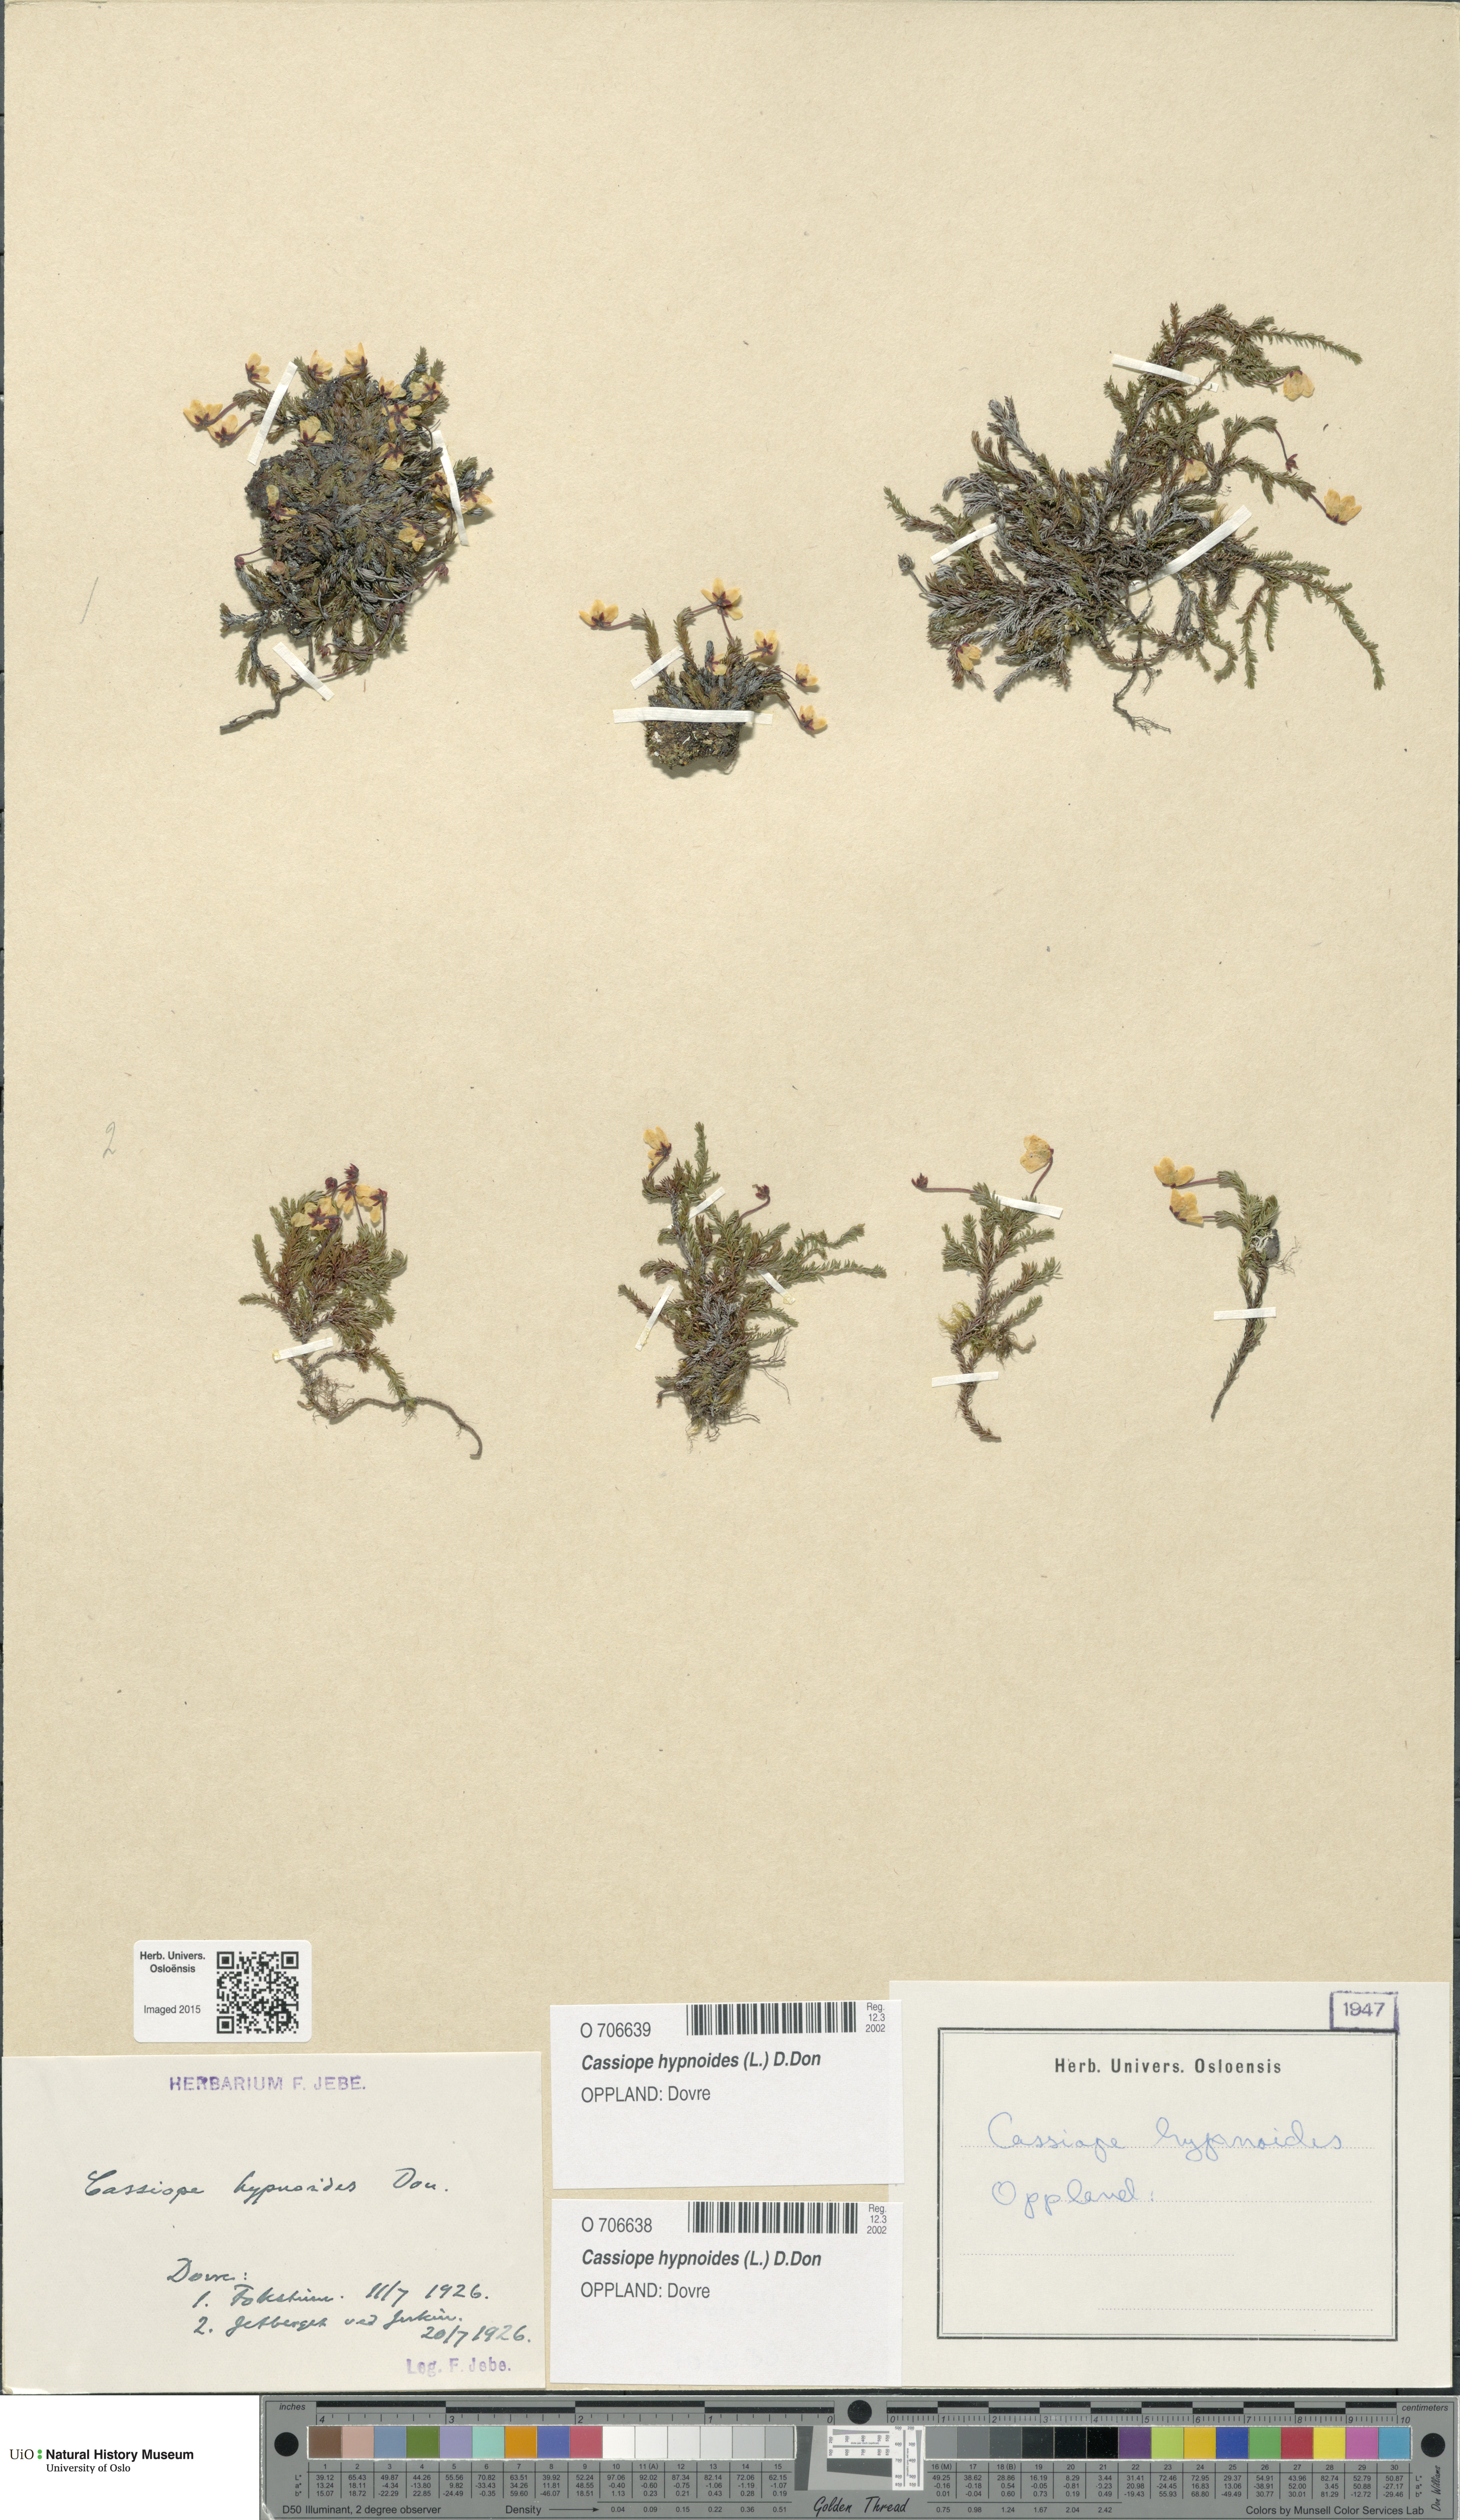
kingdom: Plantae
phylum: Tracheophyta
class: Magnoliopsida
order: Ericales
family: Ericaceae
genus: Harrimanella
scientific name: Harrimanella hypnoides
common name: Moss bell heather
